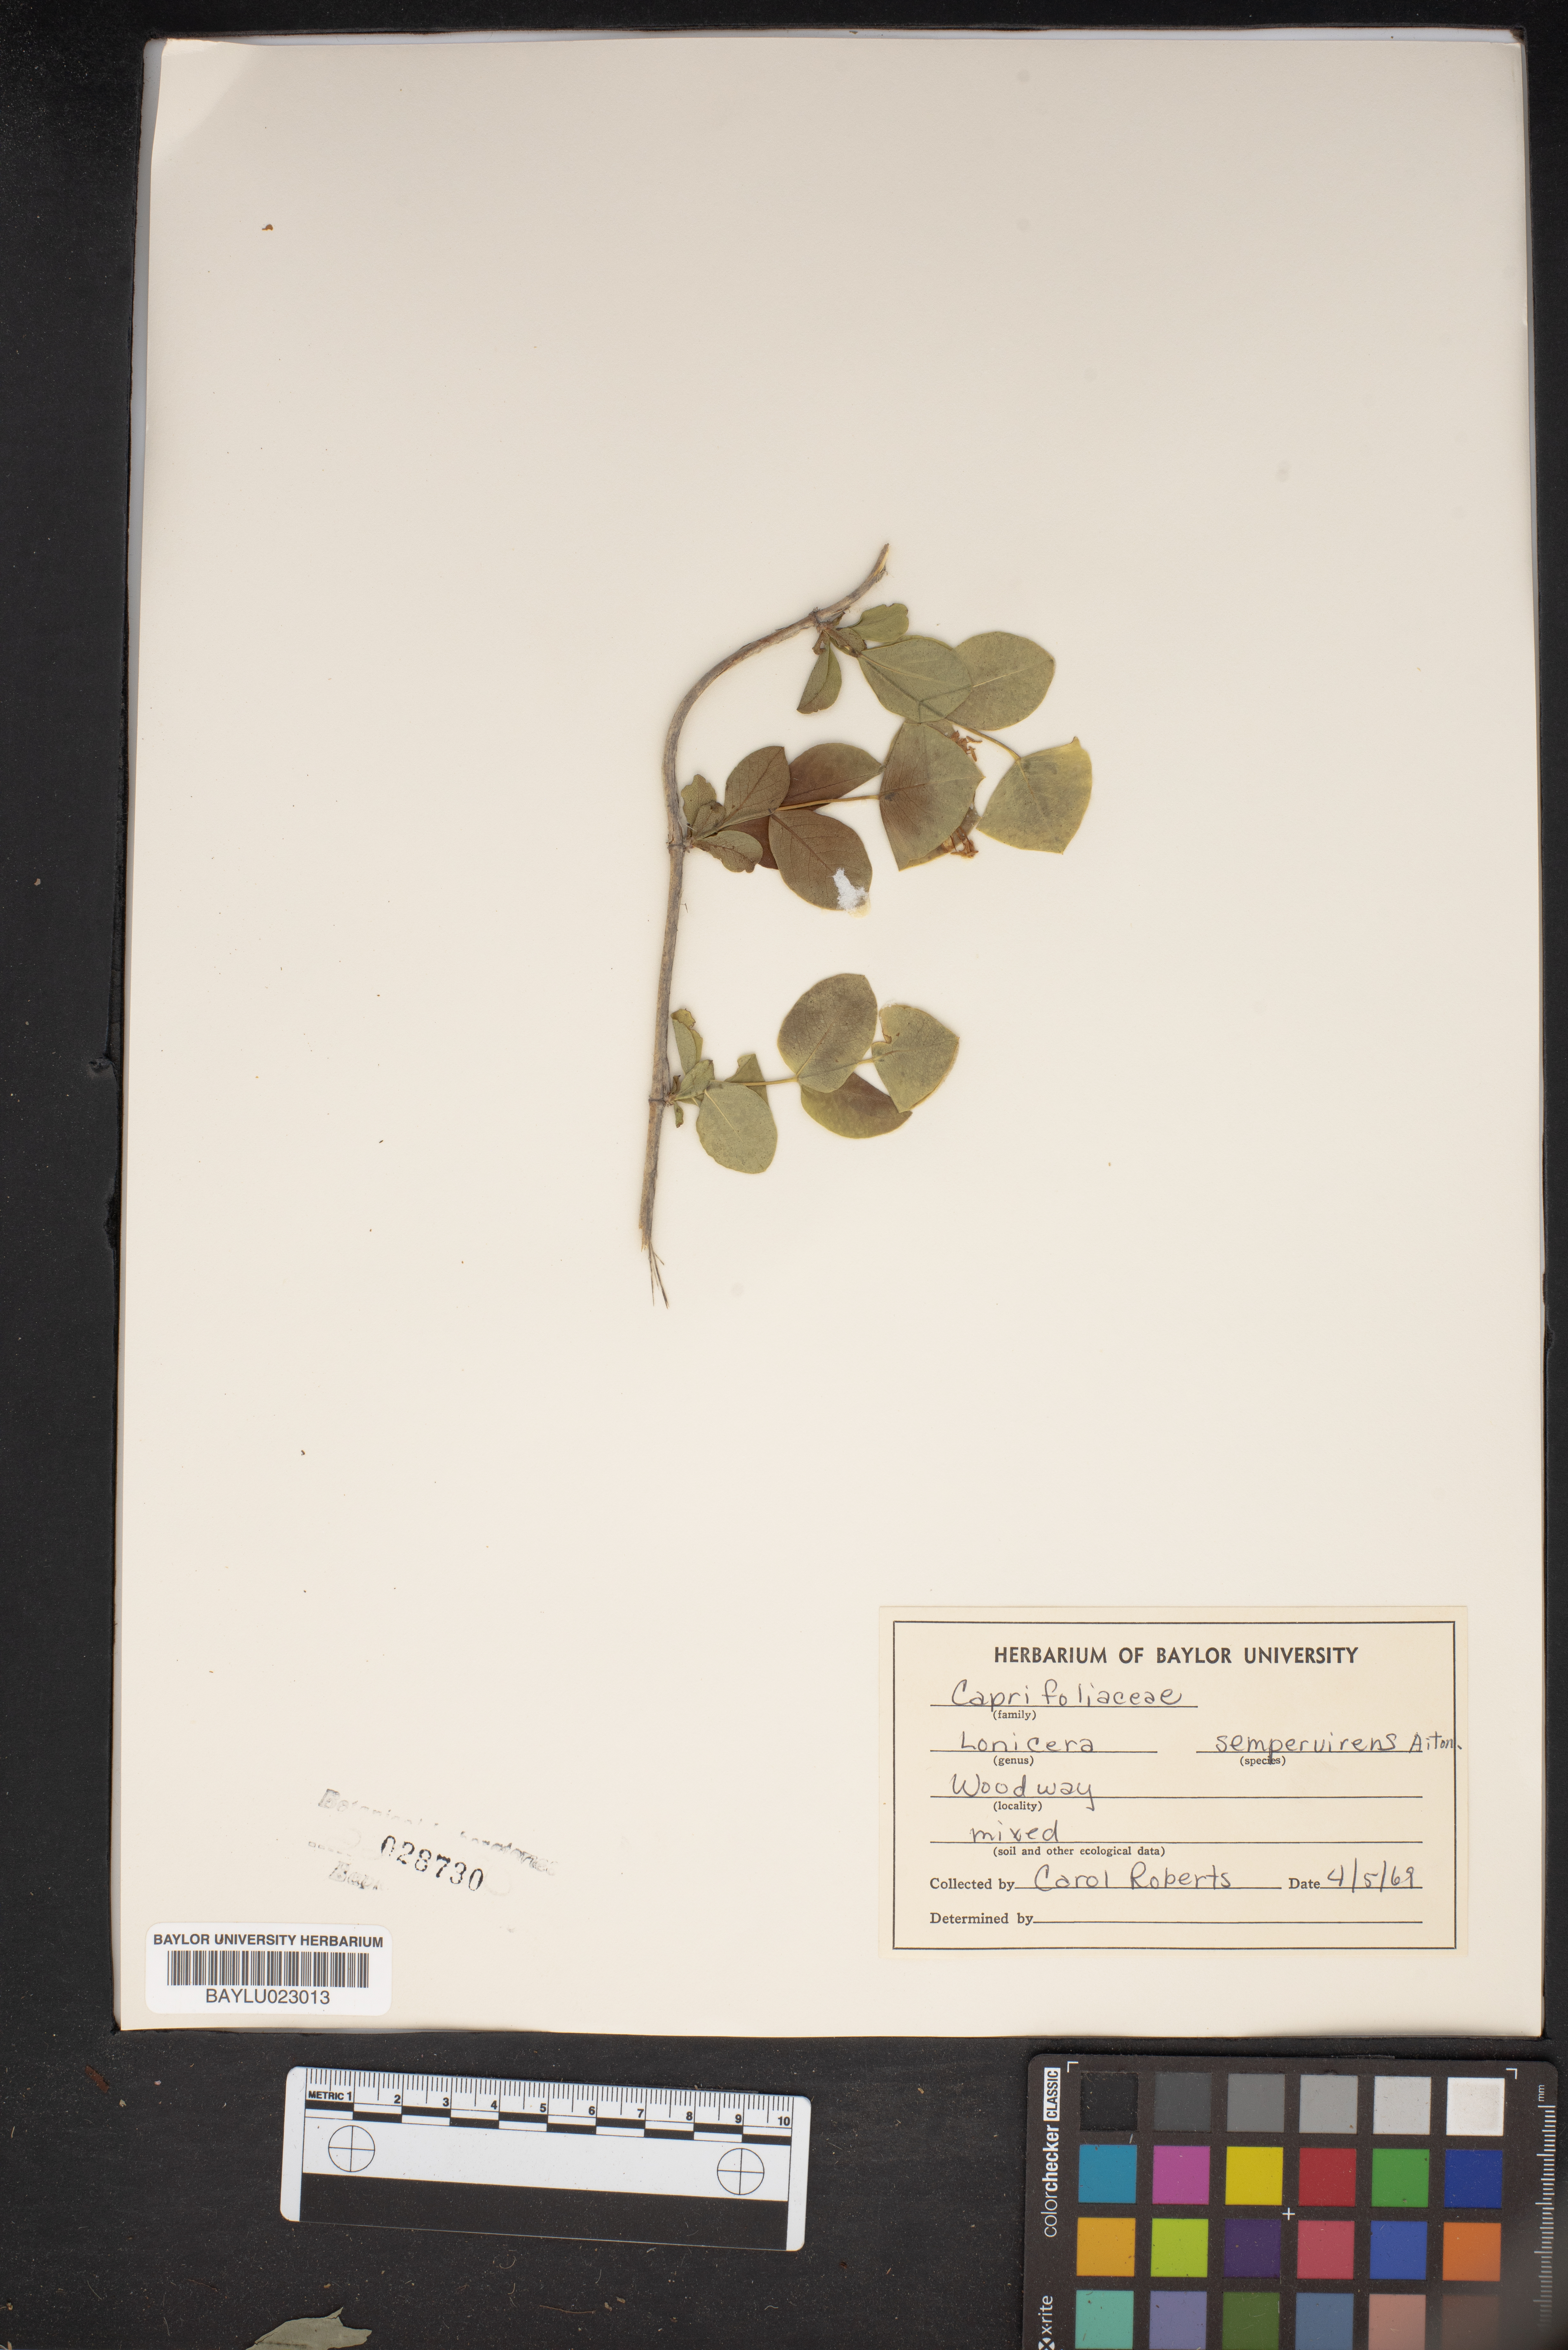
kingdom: Plantae
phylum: Tracheophyta
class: Magnoliopsida
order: Dipsacales
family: Caprifoliaceae
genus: Lonicera
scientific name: Lonicera sempervirens
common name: Coral honeysuckle
